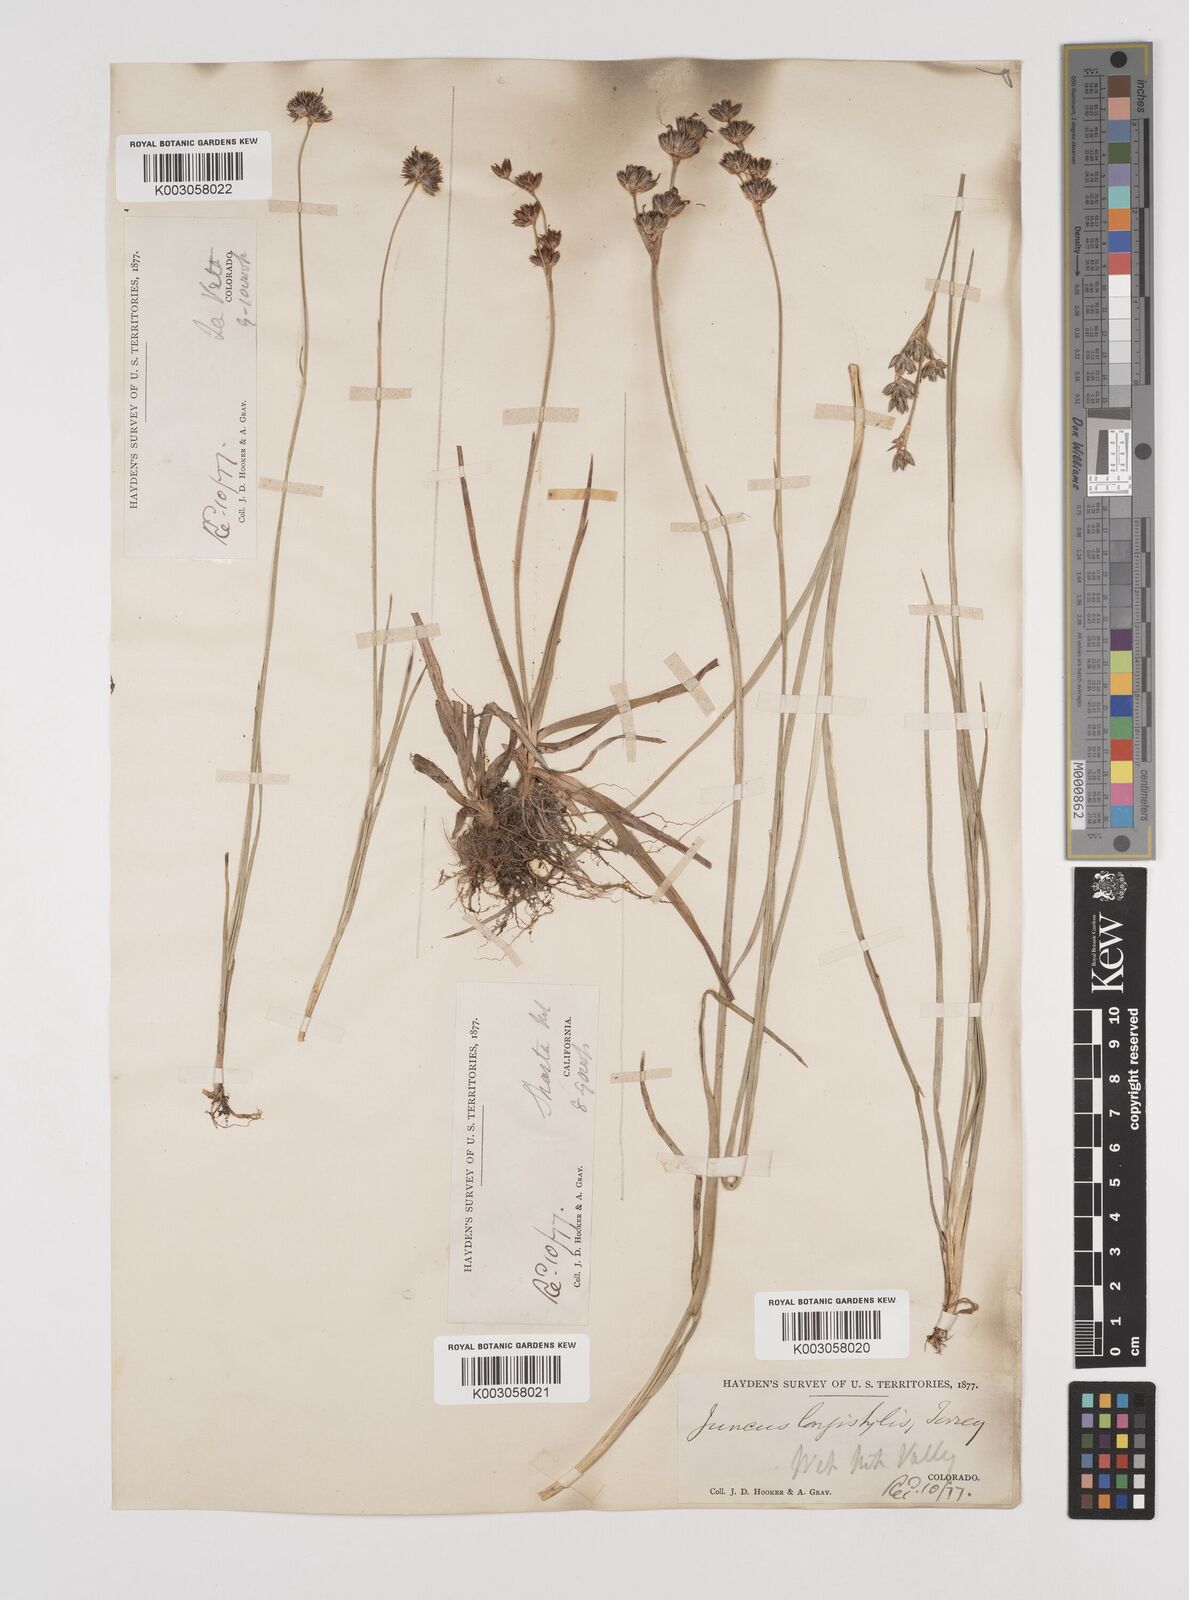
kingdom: Plantae
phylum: Tracheophyta
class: Liliopsida
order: Poales
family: Juncaceae
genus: Juncus
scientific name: Juncus longistylis
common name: Long-style rush
